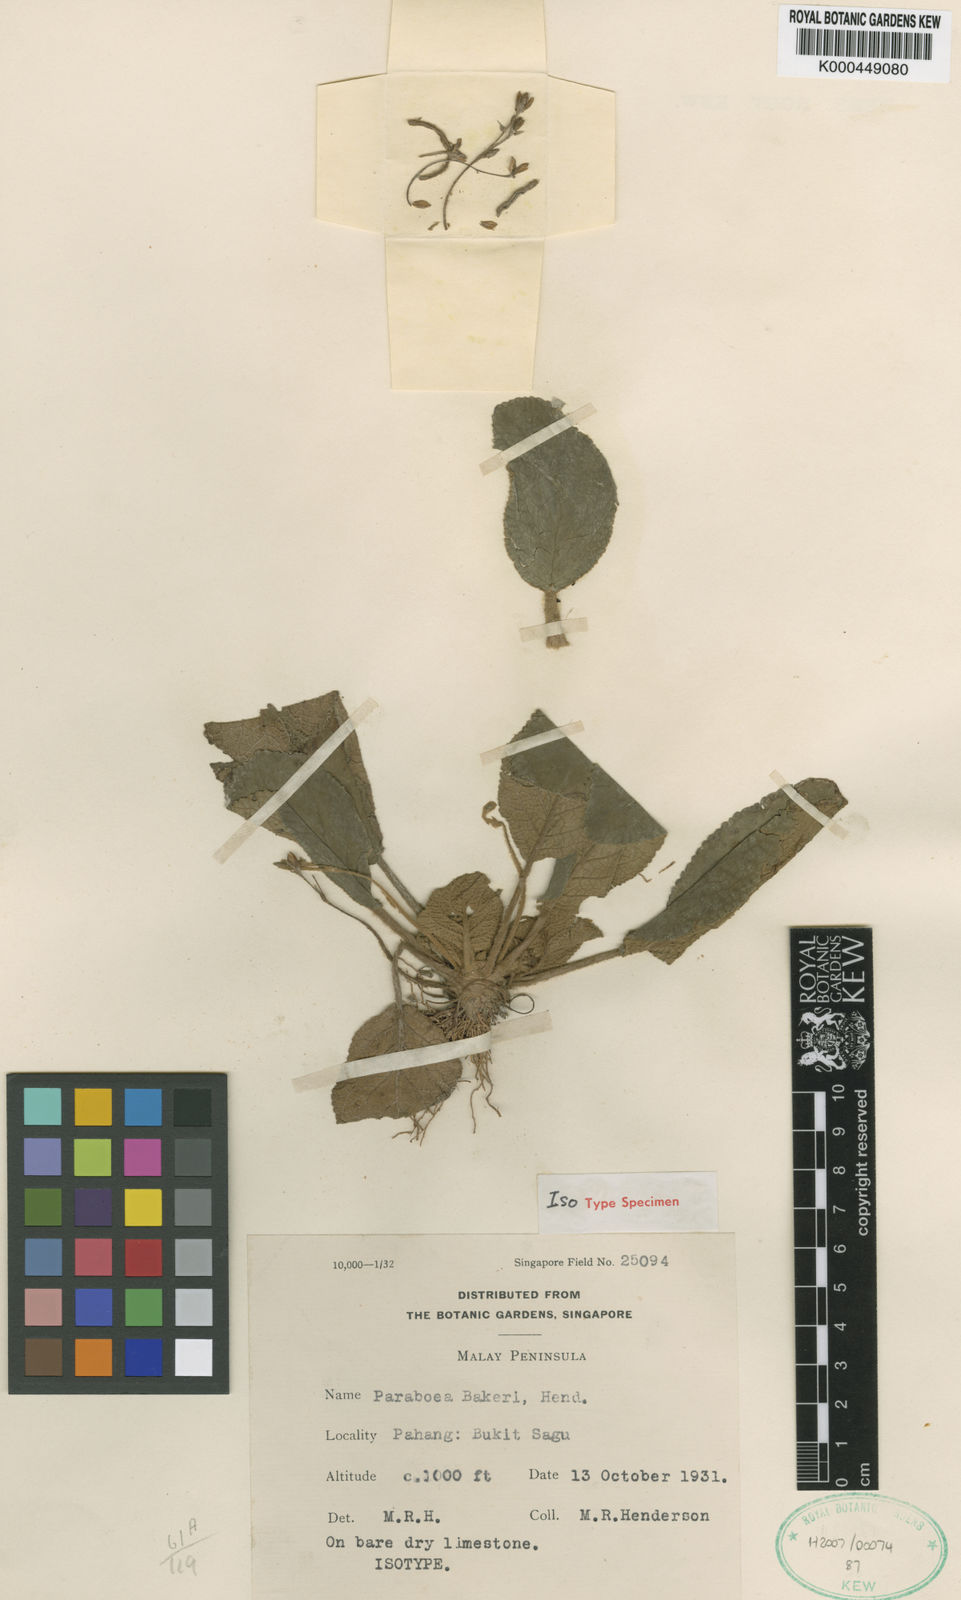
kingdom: Plantae
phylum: Tracheophyta
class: Magnoliopsida
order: Lamiales
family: Gesneriaceae
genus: Paraboea
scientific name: Paraboea bakeri
